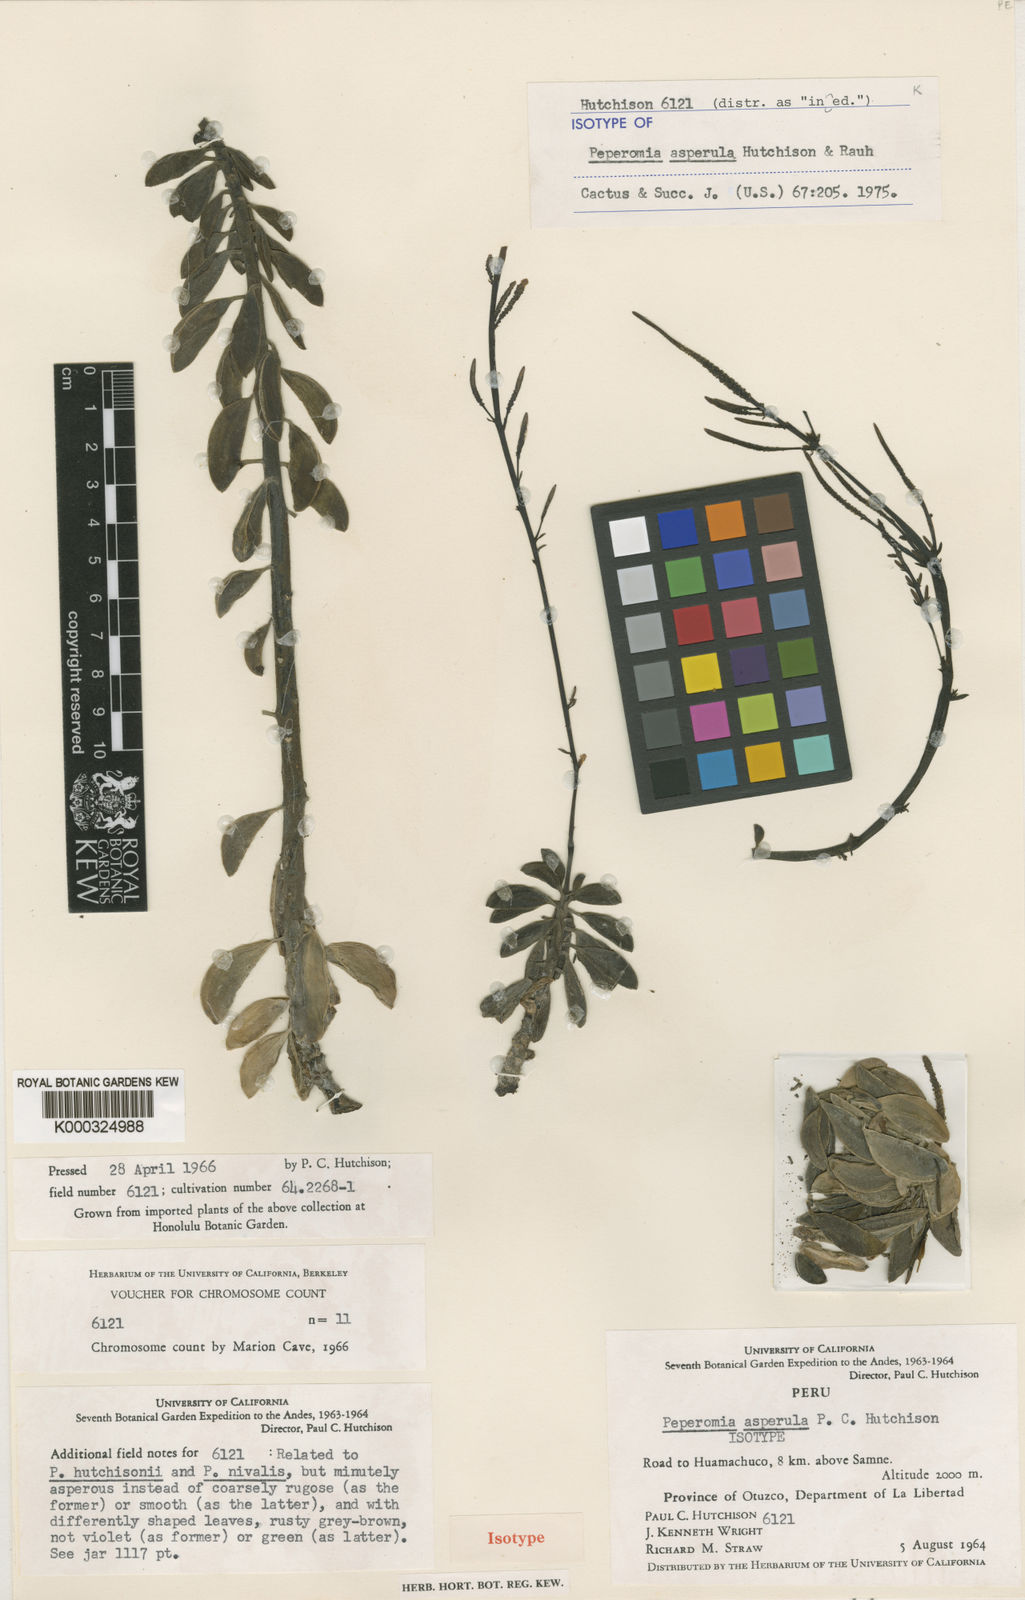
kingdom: Plantae
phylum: Tracheophyta
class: Magnoliopsida
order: Piperales
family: Piperaceae
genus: Peperomia
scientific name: Peperomia asperula
